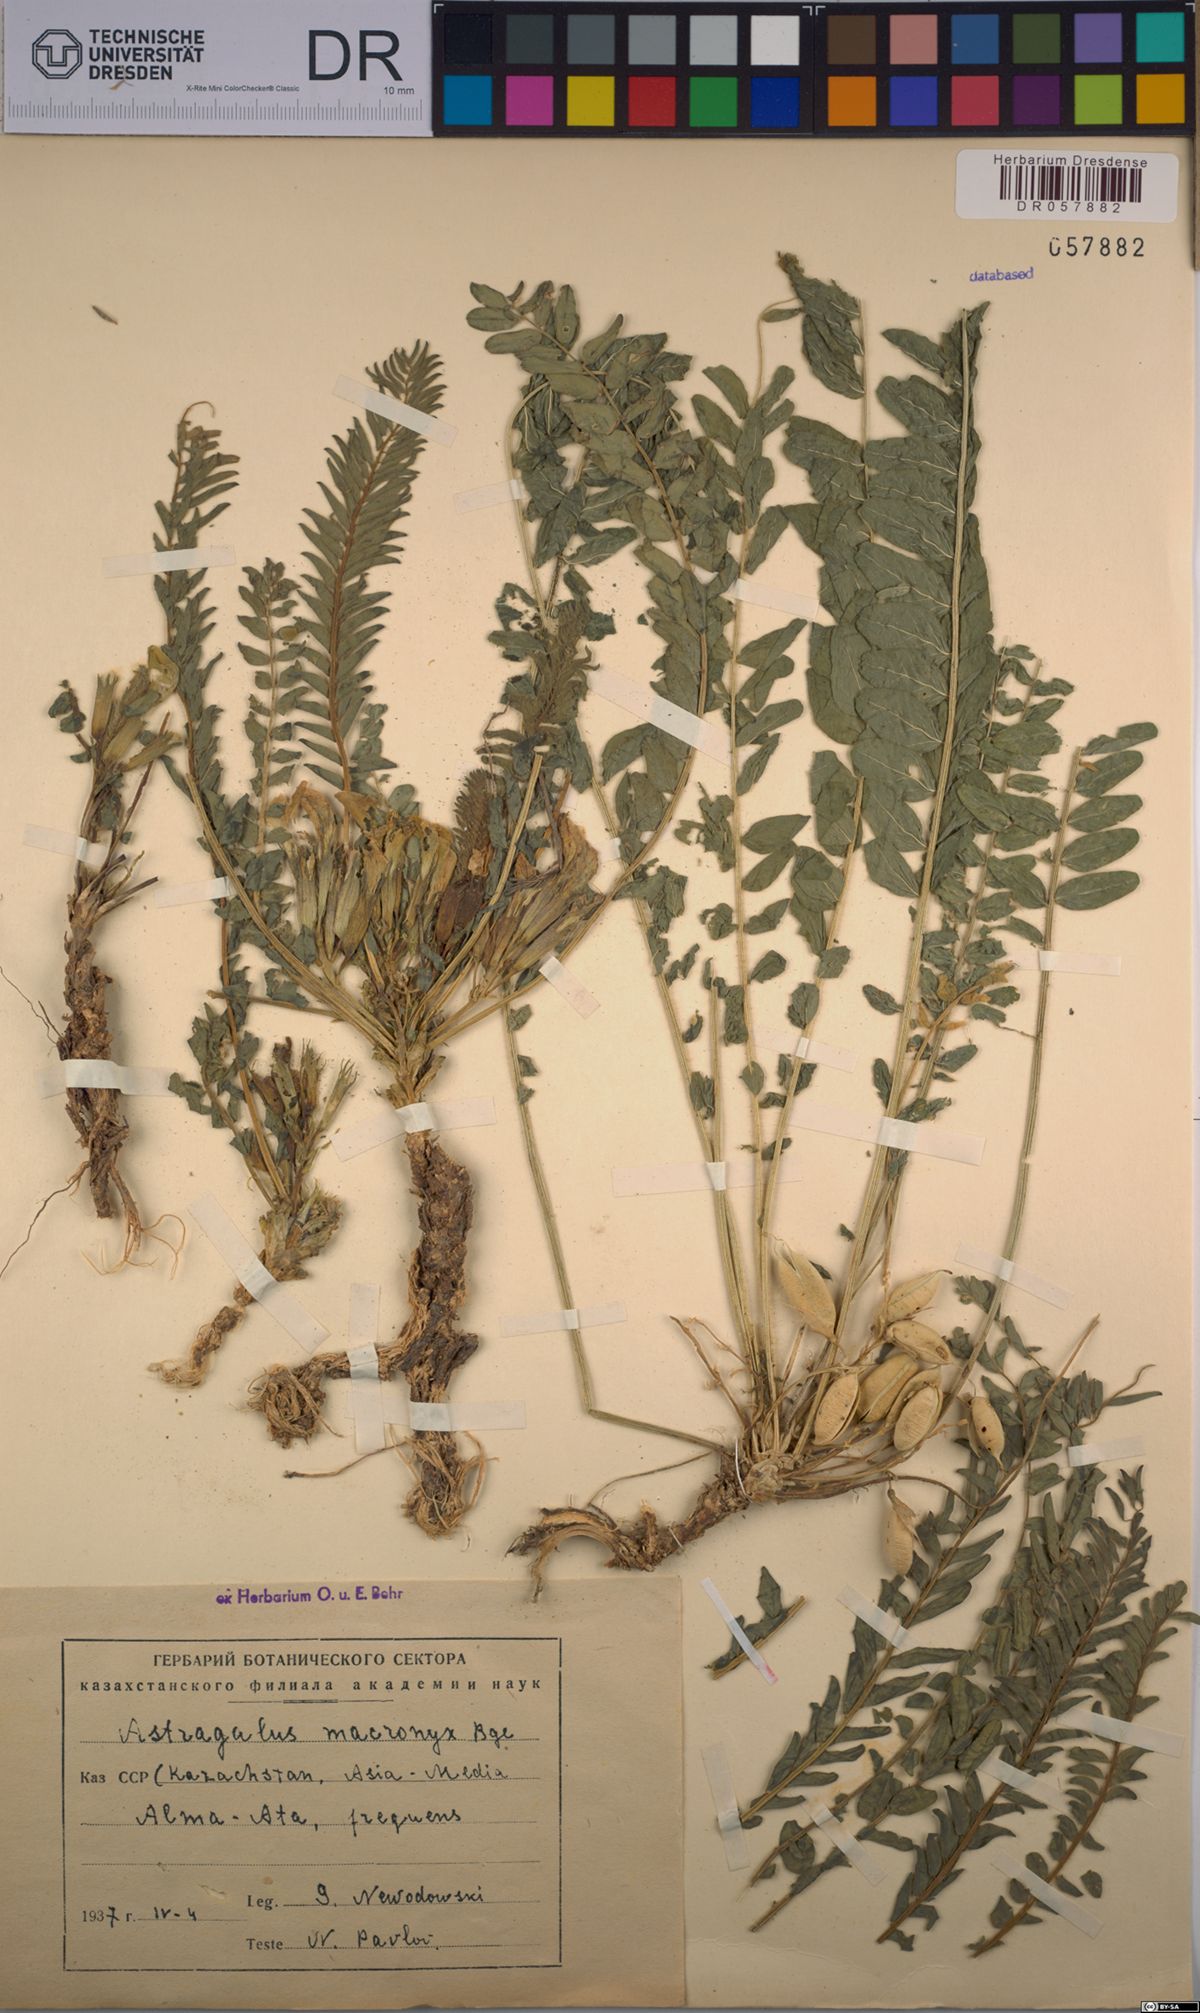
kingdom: Plantae
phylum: Tracheophyta
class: Magnoliopsida
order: Fabales
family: Fabaceae
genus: Astragalus
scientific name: Astragalus macronyx
